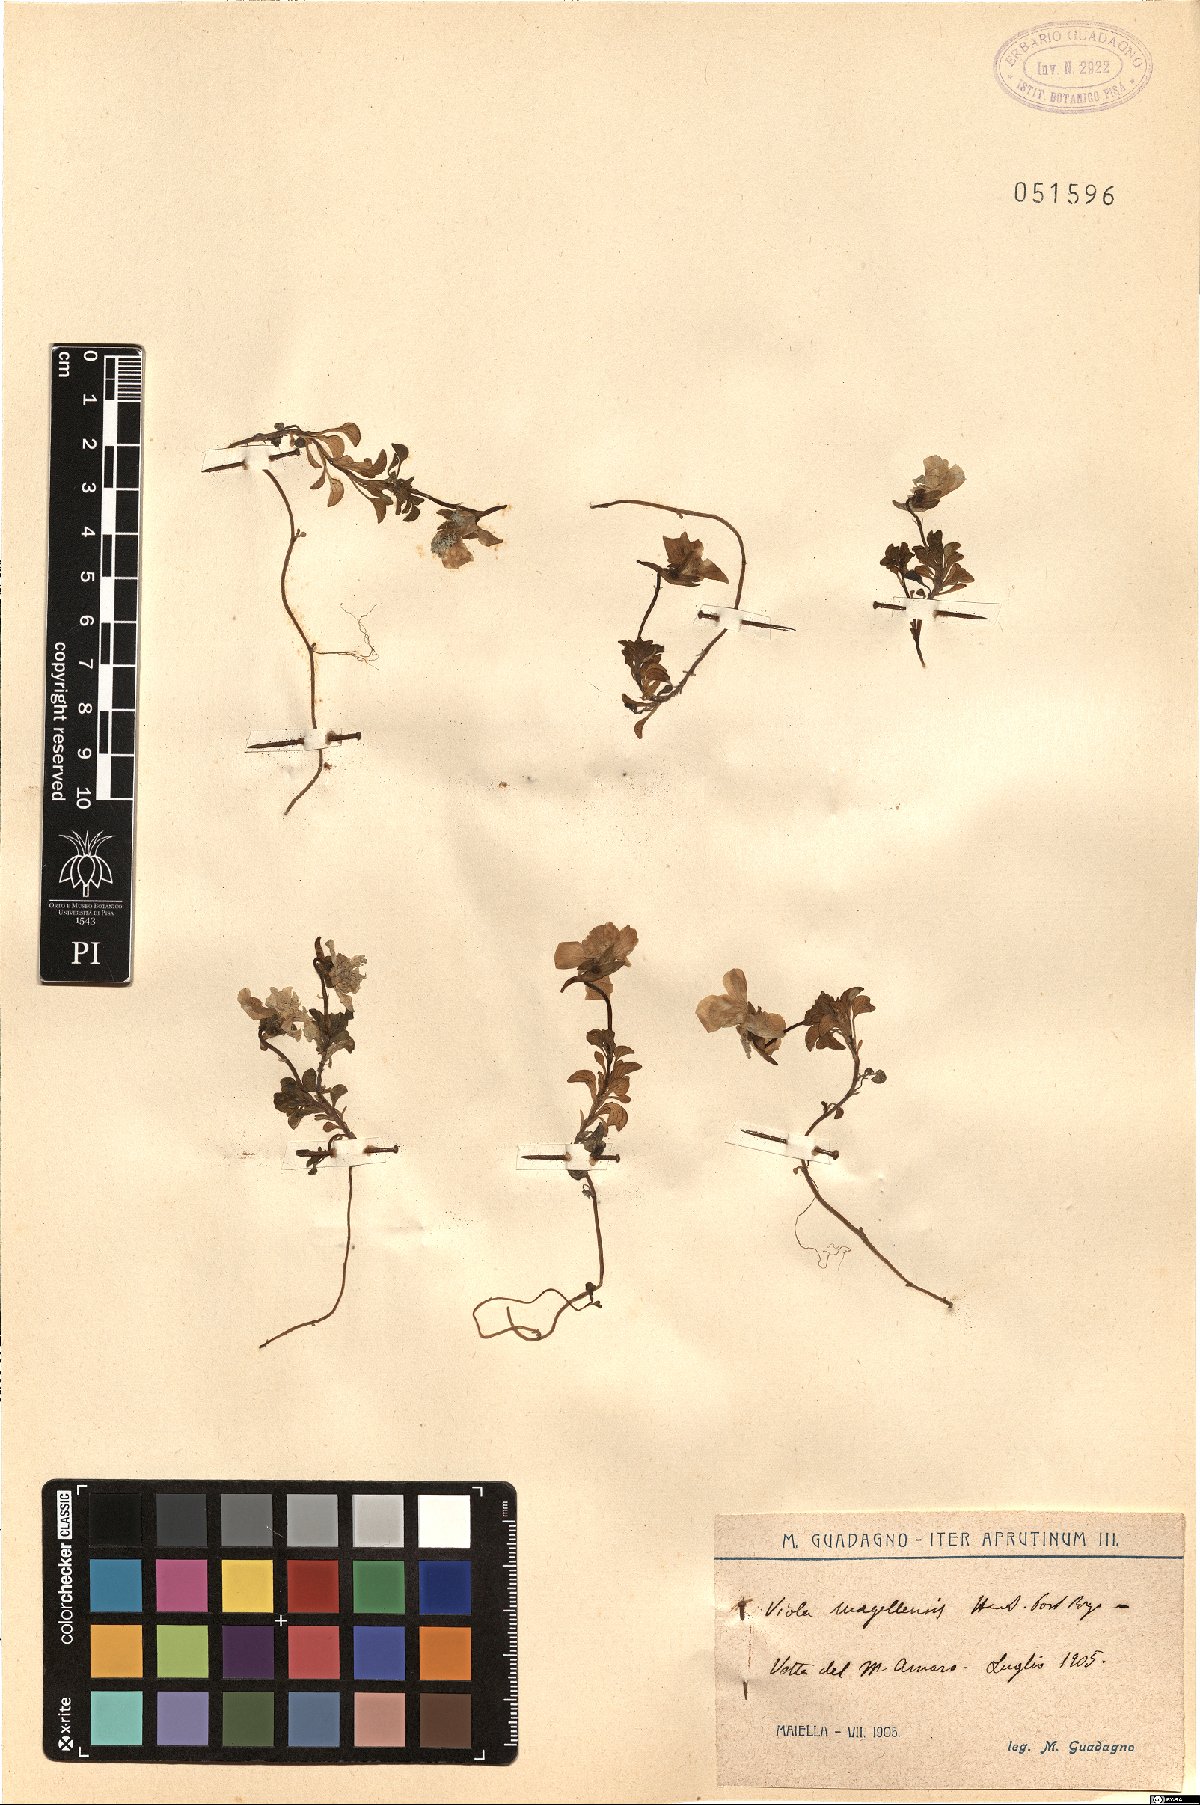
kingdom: Plantae
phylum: Tracheophyta
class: Magnoliopsida
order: Malpighiales
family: Violaceae
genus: Viola
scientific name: Viola magellensis
